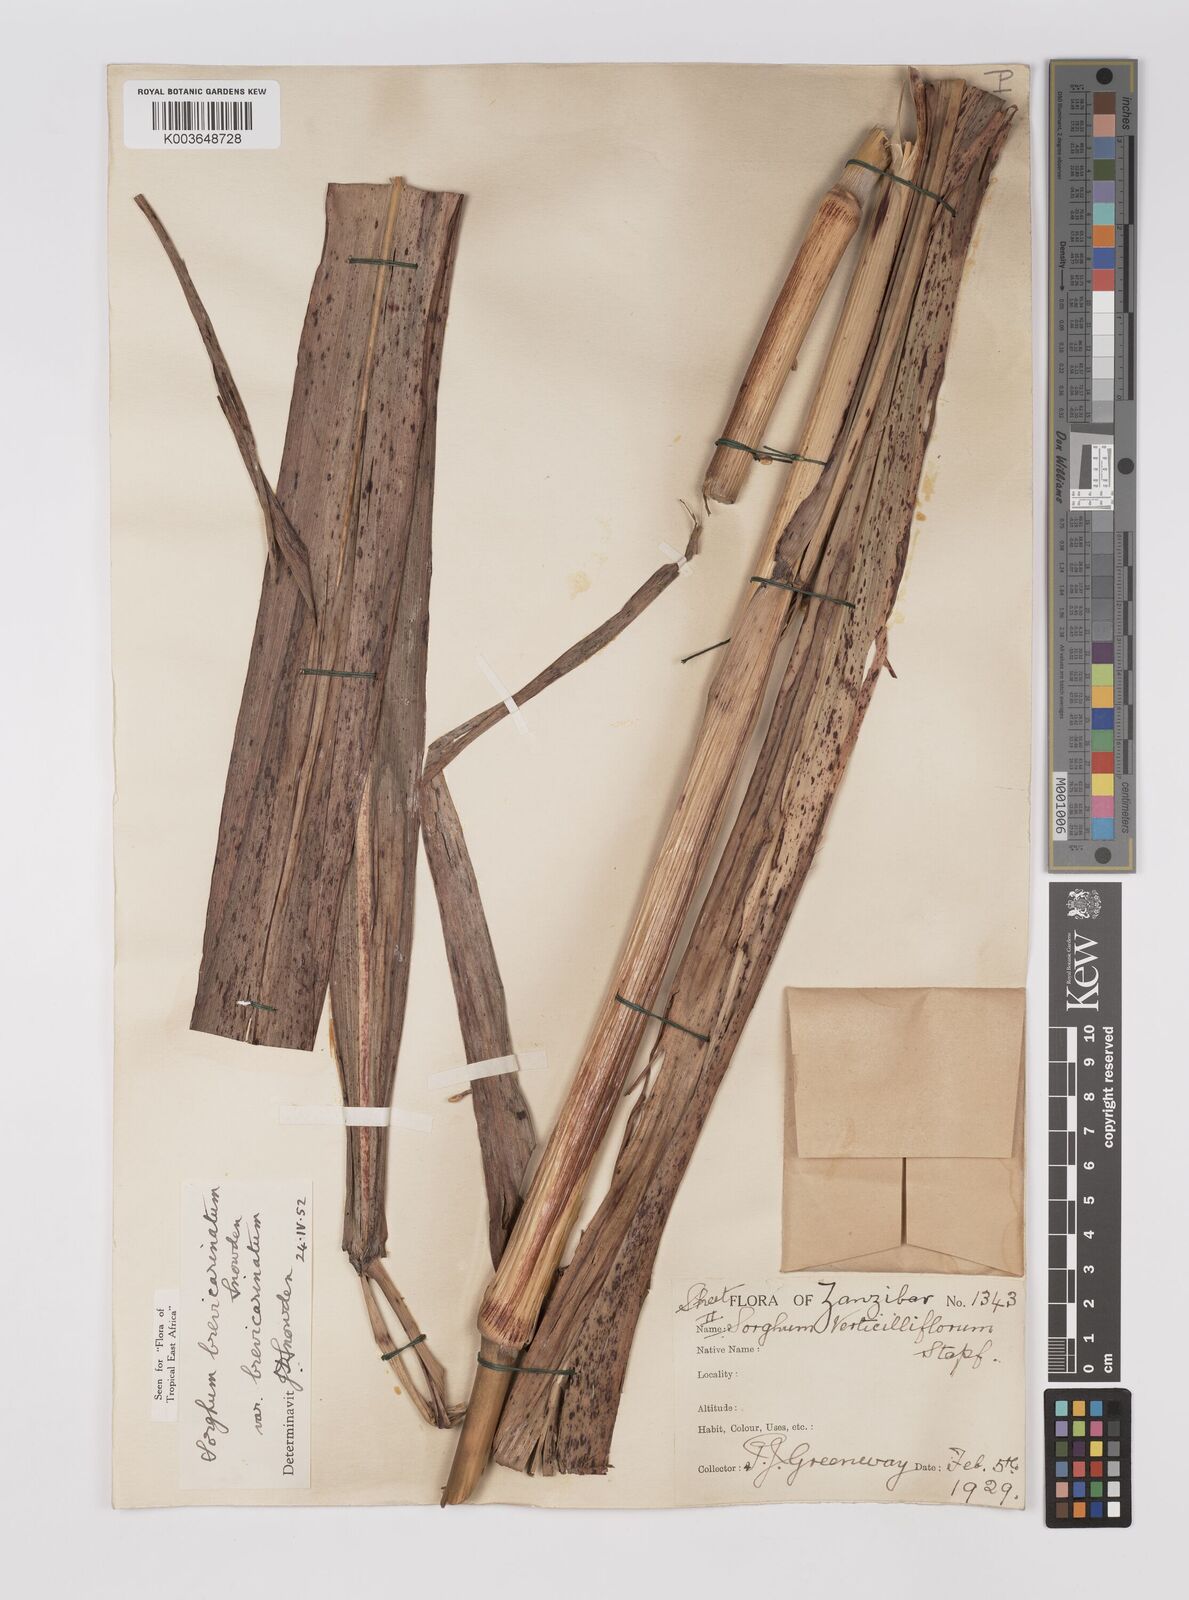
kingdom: Plantae
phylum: Tracheophyta
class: Liliopsida
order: Poales
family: Poaceae
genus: Sorghum
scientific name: Sorghum arundinaceum
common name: Sorghum
